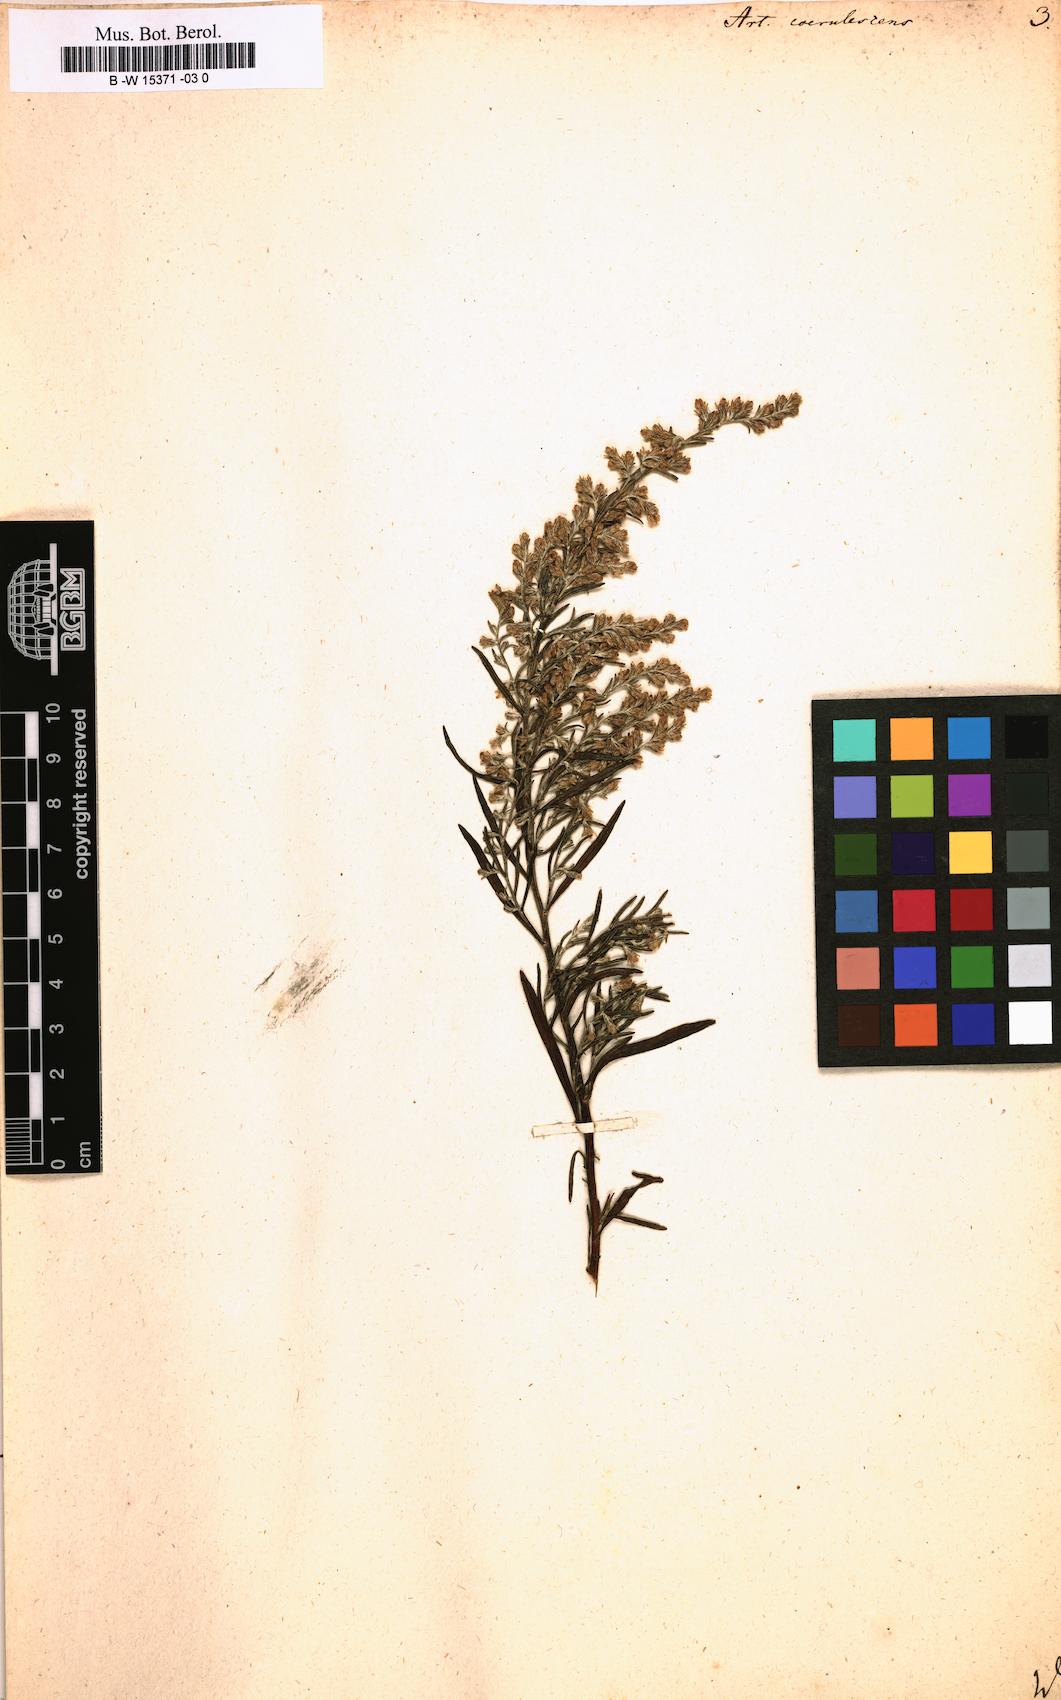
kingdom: Plantae
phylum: Tracheophyta
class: Magnoliopsida
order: Asterales
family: Asteraceae
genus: Artemisia
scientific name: Artemisia caerulescens
